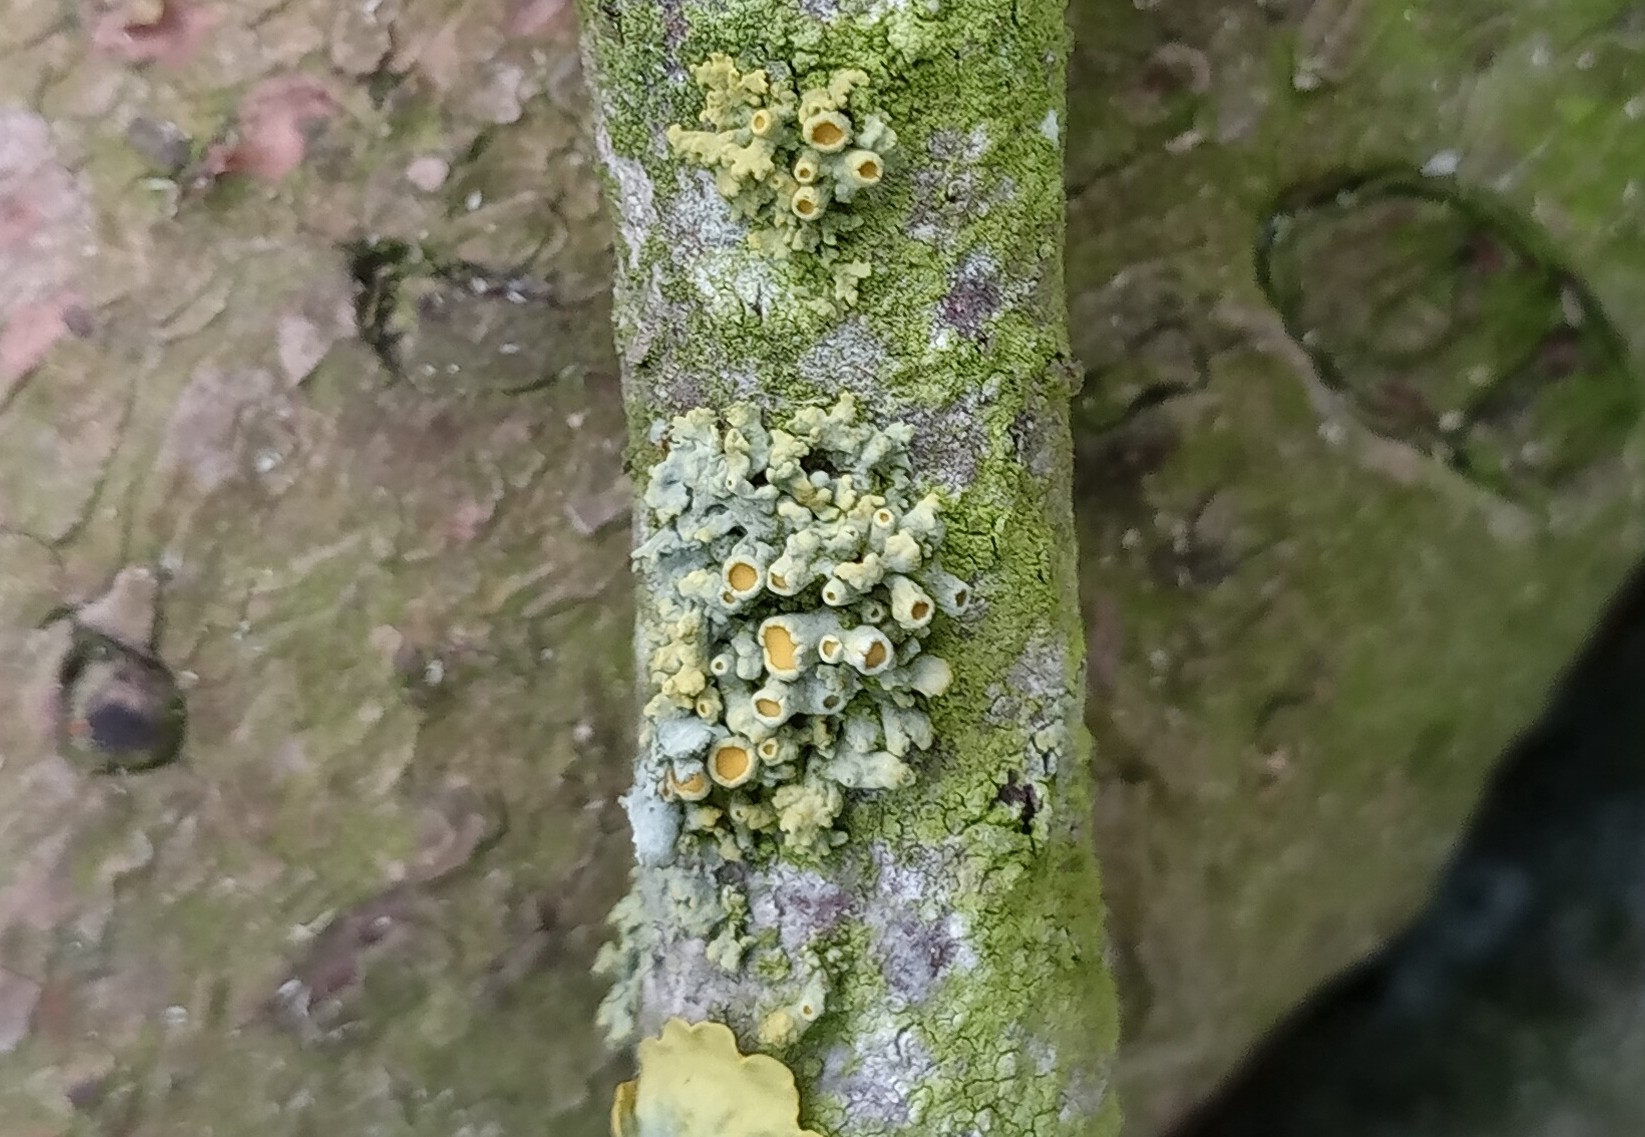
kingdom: Fungi
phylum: Ascomycota
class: Lecanoromycetes
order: Teloschistales
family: Teloschistaceae
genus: Polycauliona
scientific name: Polycauliona polycarpa
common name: mangefrugtet orangelav
